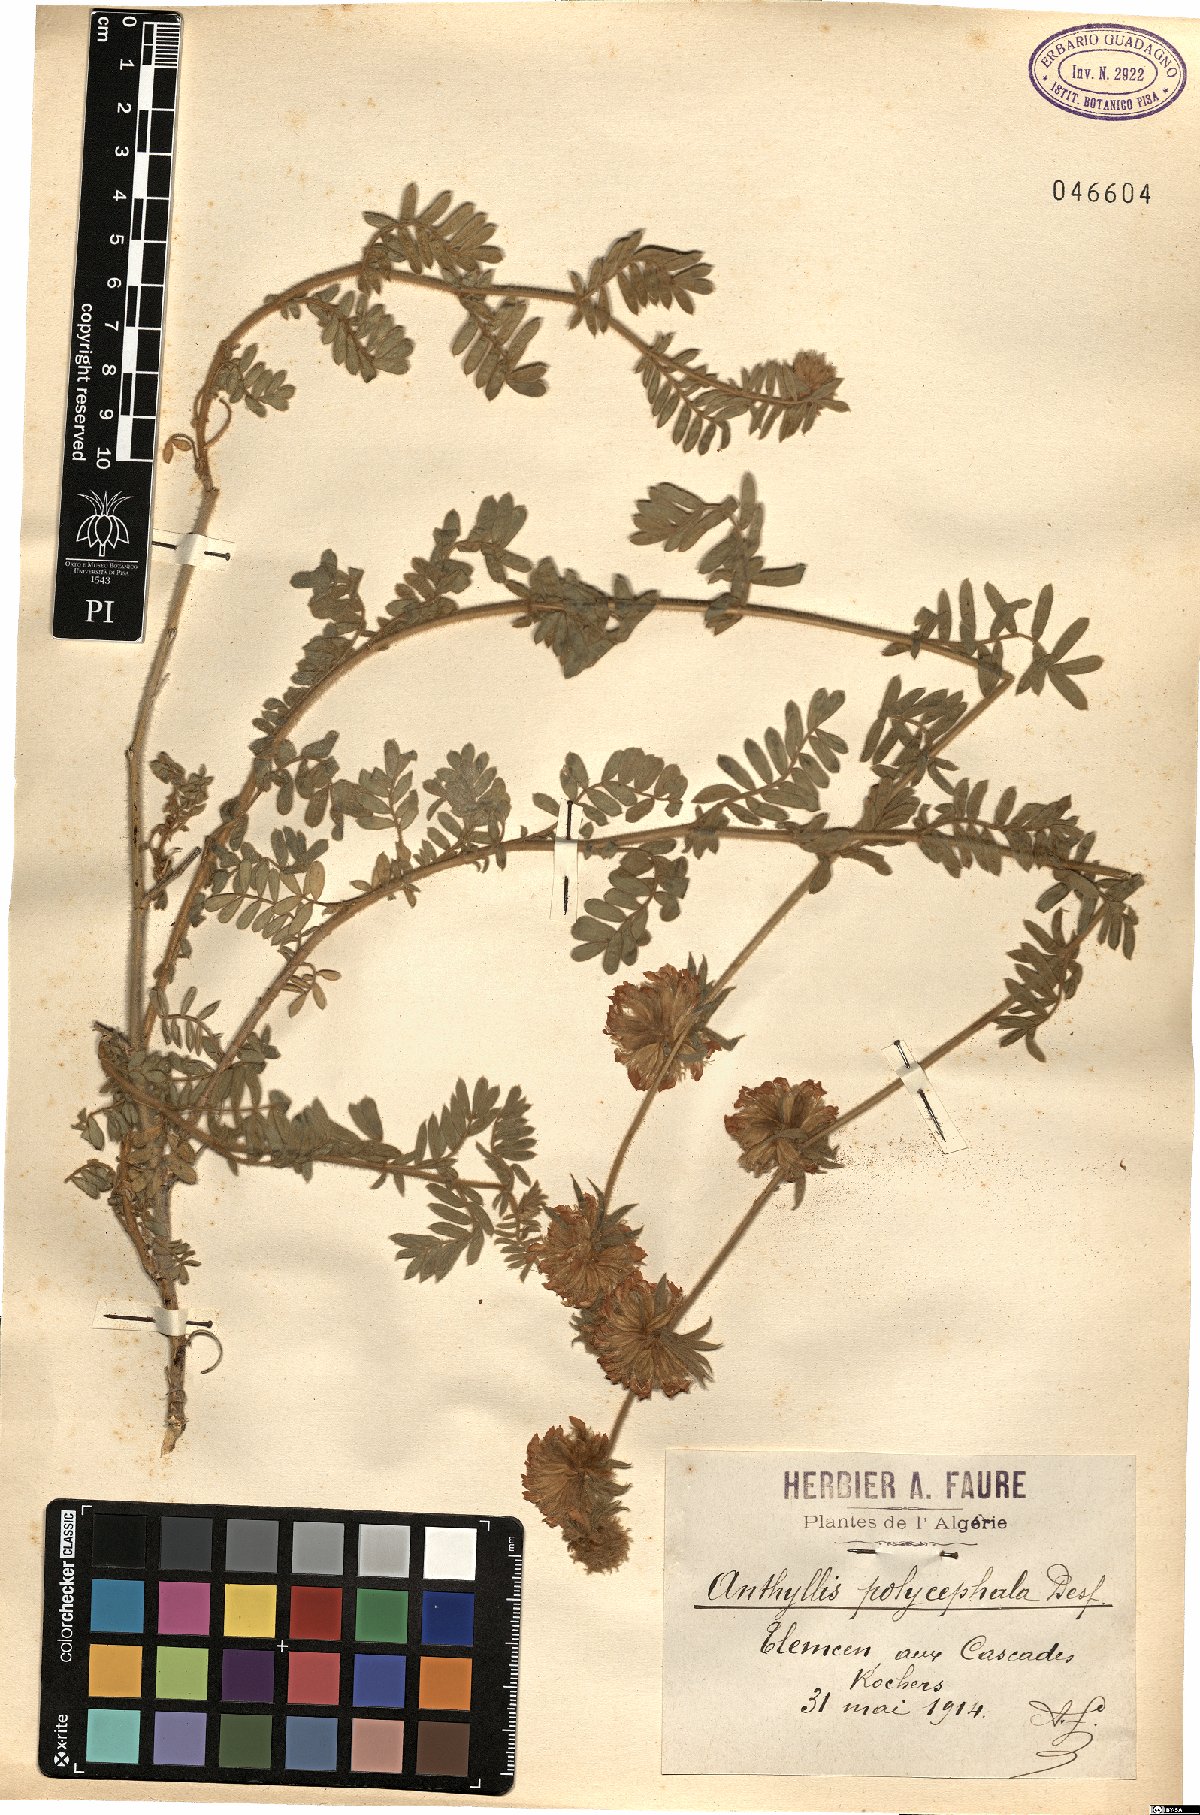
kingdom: Plantae
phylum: Tracheophyta
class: Magnoliopsida
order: Fabales
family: Fabaceae
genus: Anthyllis
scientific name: Anthyllis polycephala
